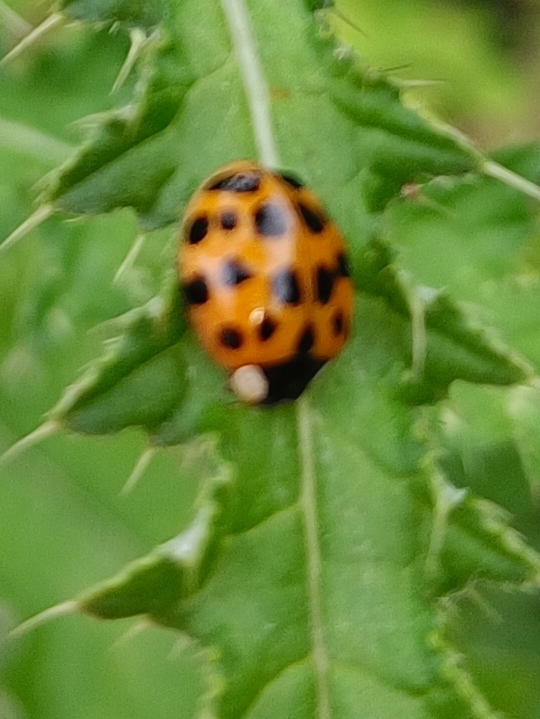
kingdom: Animalia
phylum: Arthropoda
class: Insecta
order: Coleoptera
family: Coccinellidae
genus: Harmonia
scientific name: Harmonia axyridis
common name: Harlekinmariehøne
